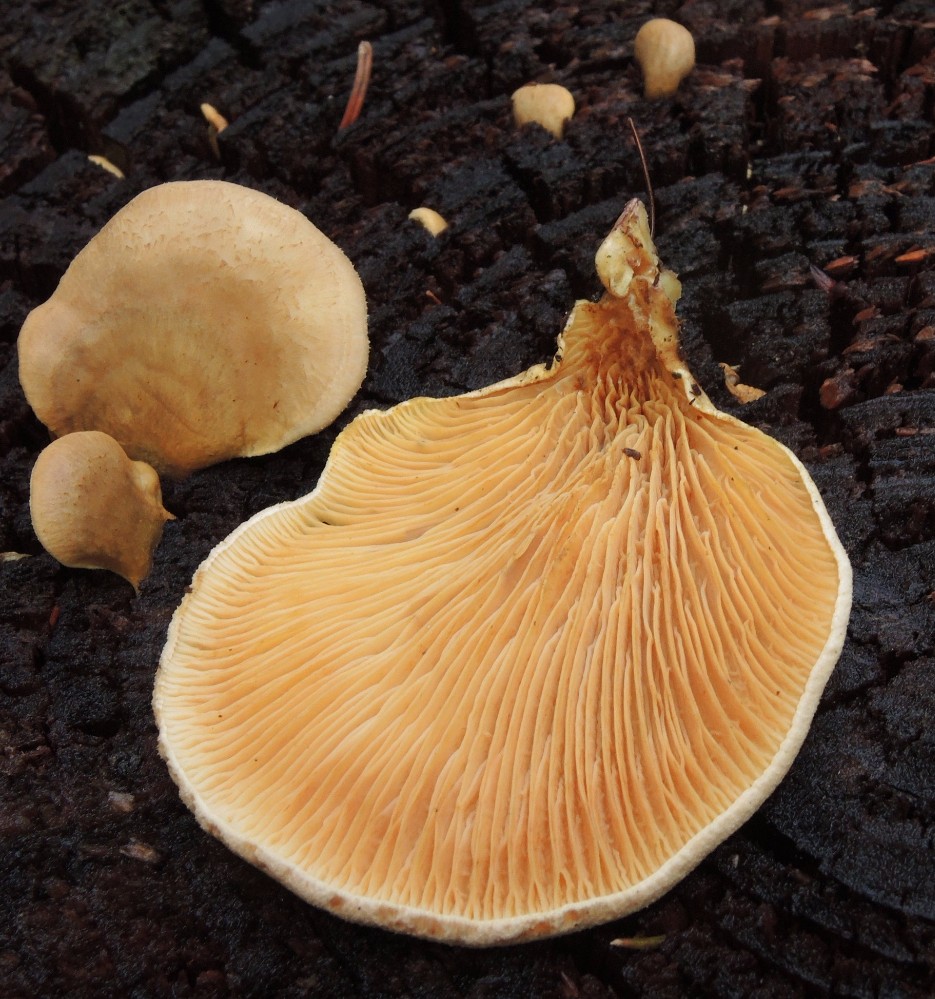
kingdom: Fungi
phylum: Basidiomycota
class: Agaricomycetes
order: Boletales
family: Tapinellaceae
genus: Tapinella
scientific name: Tapinella panuoides
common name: tømmer-viftesvamp
